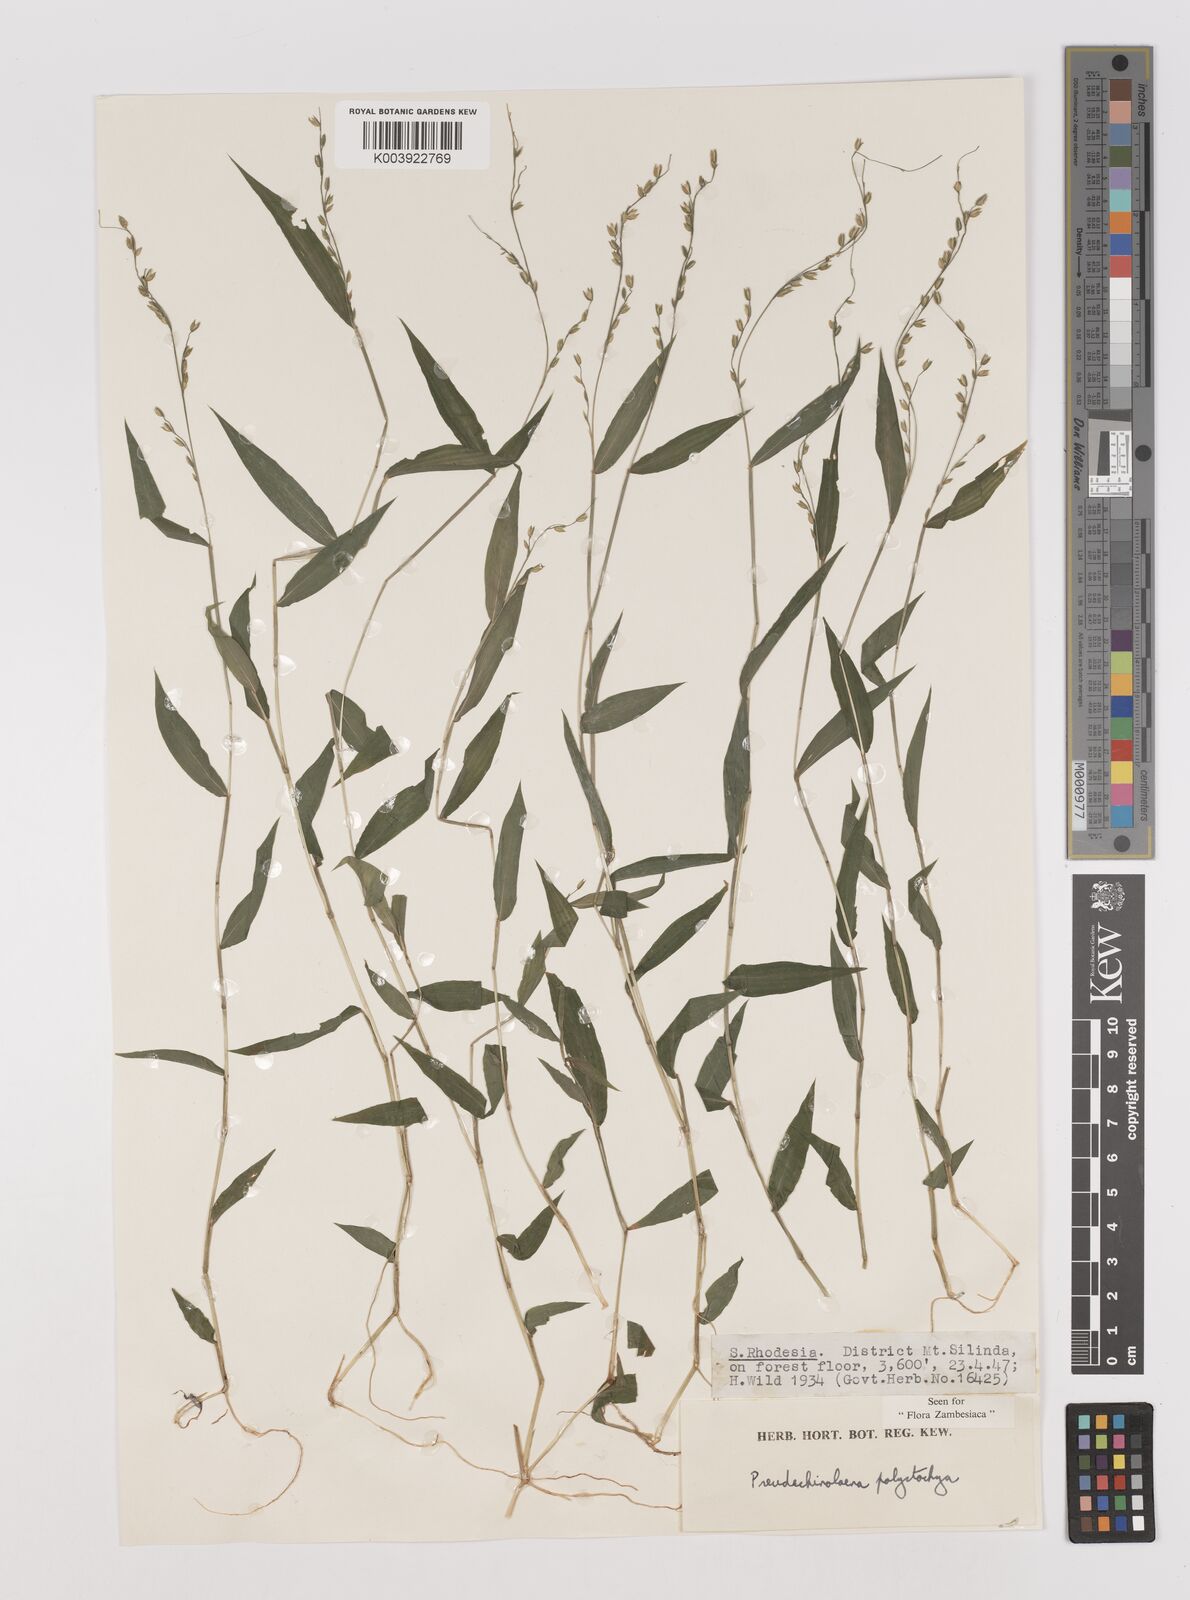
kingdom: Plantae
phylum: Tracheophyta
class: Liliopsida
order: Poales
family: Poaceae
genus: Pseudechinolaena
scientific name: Pseudechinolaena polystachya
